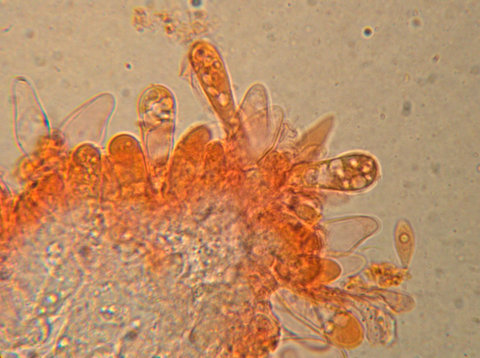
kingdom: Fungi
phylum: Basidiomycota
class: Agaricomycetes
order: Agaricales
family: Physalacriaceae
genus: Rhizomarasmius
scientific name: Rhizomarasmius setosus
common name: bøgeblads-bruskhat
